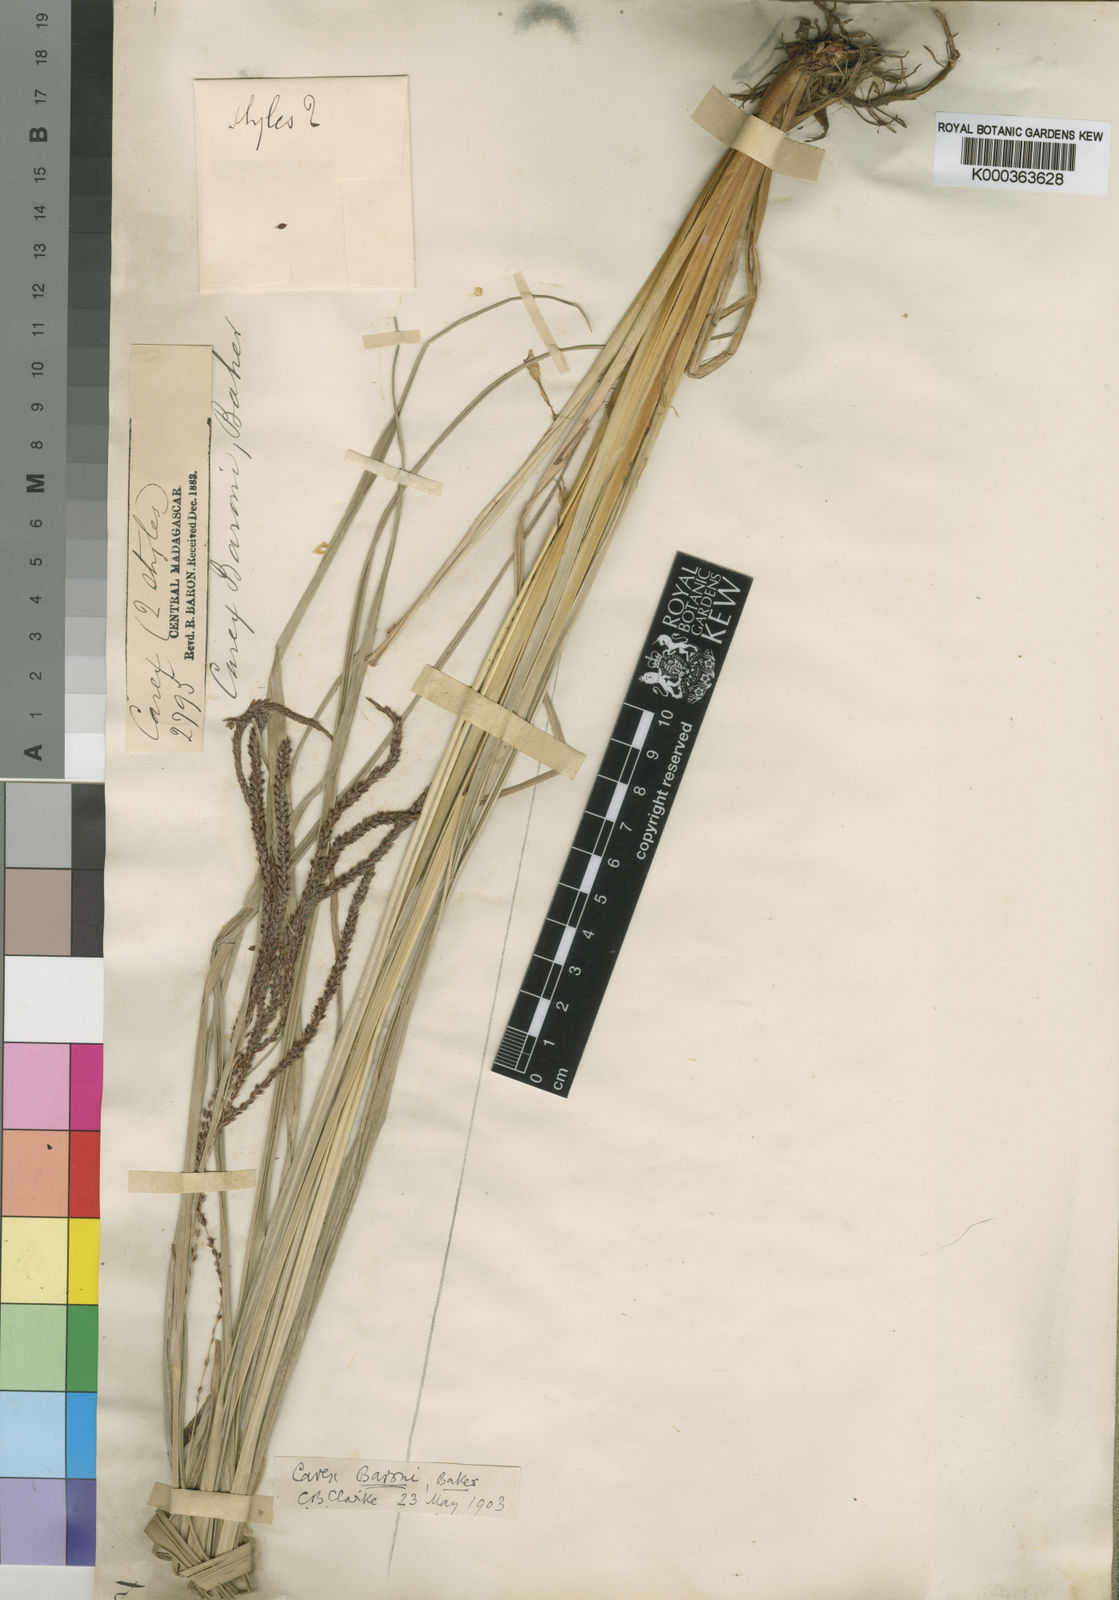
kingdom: Plantae
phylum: Tracheophyta
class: Liliopsida
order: Poales
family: Cyperaceae
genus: Carex
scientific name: Carex baronii
